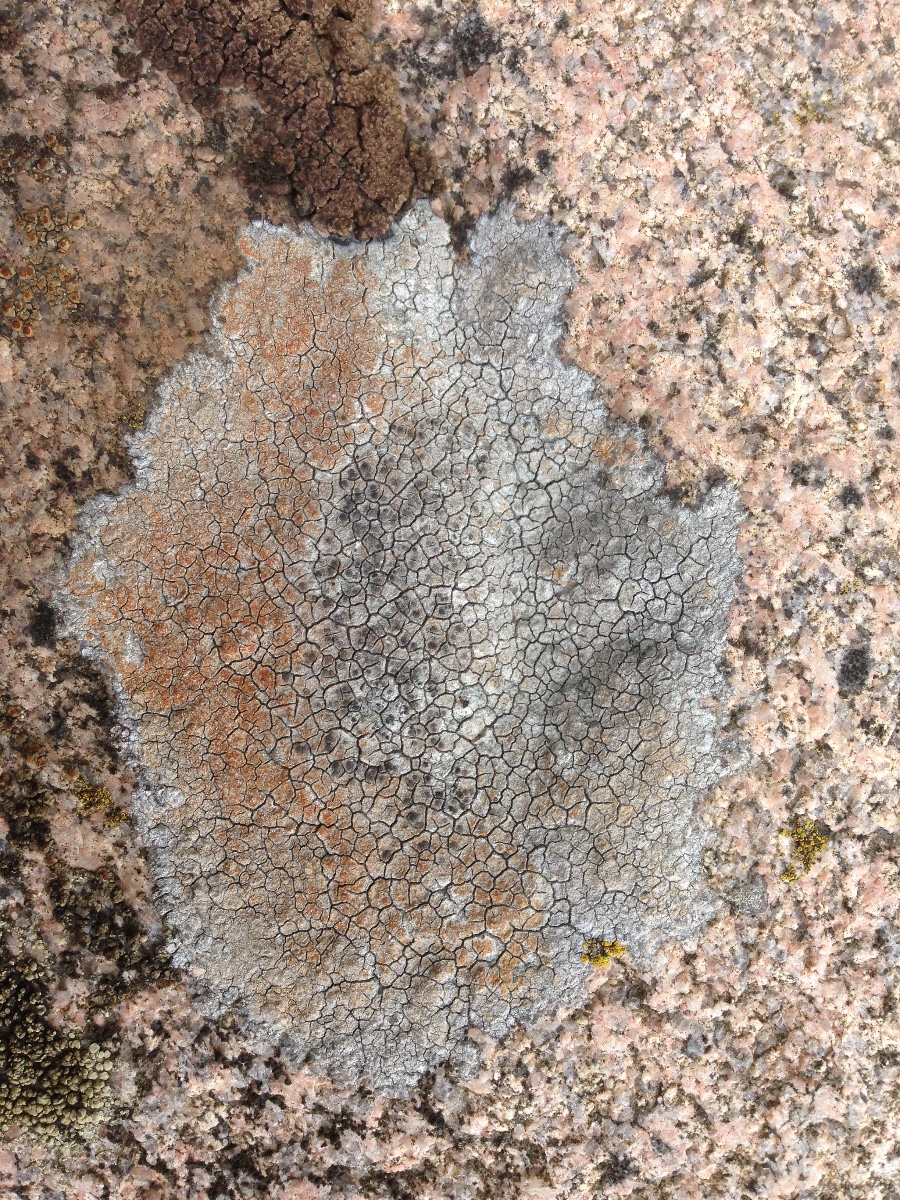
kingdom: Fungi
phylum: Ascomycota
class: Lecanoromycetes
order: Lecideales
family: Lecideaceae
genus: Porpidia
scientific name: Porpidia
